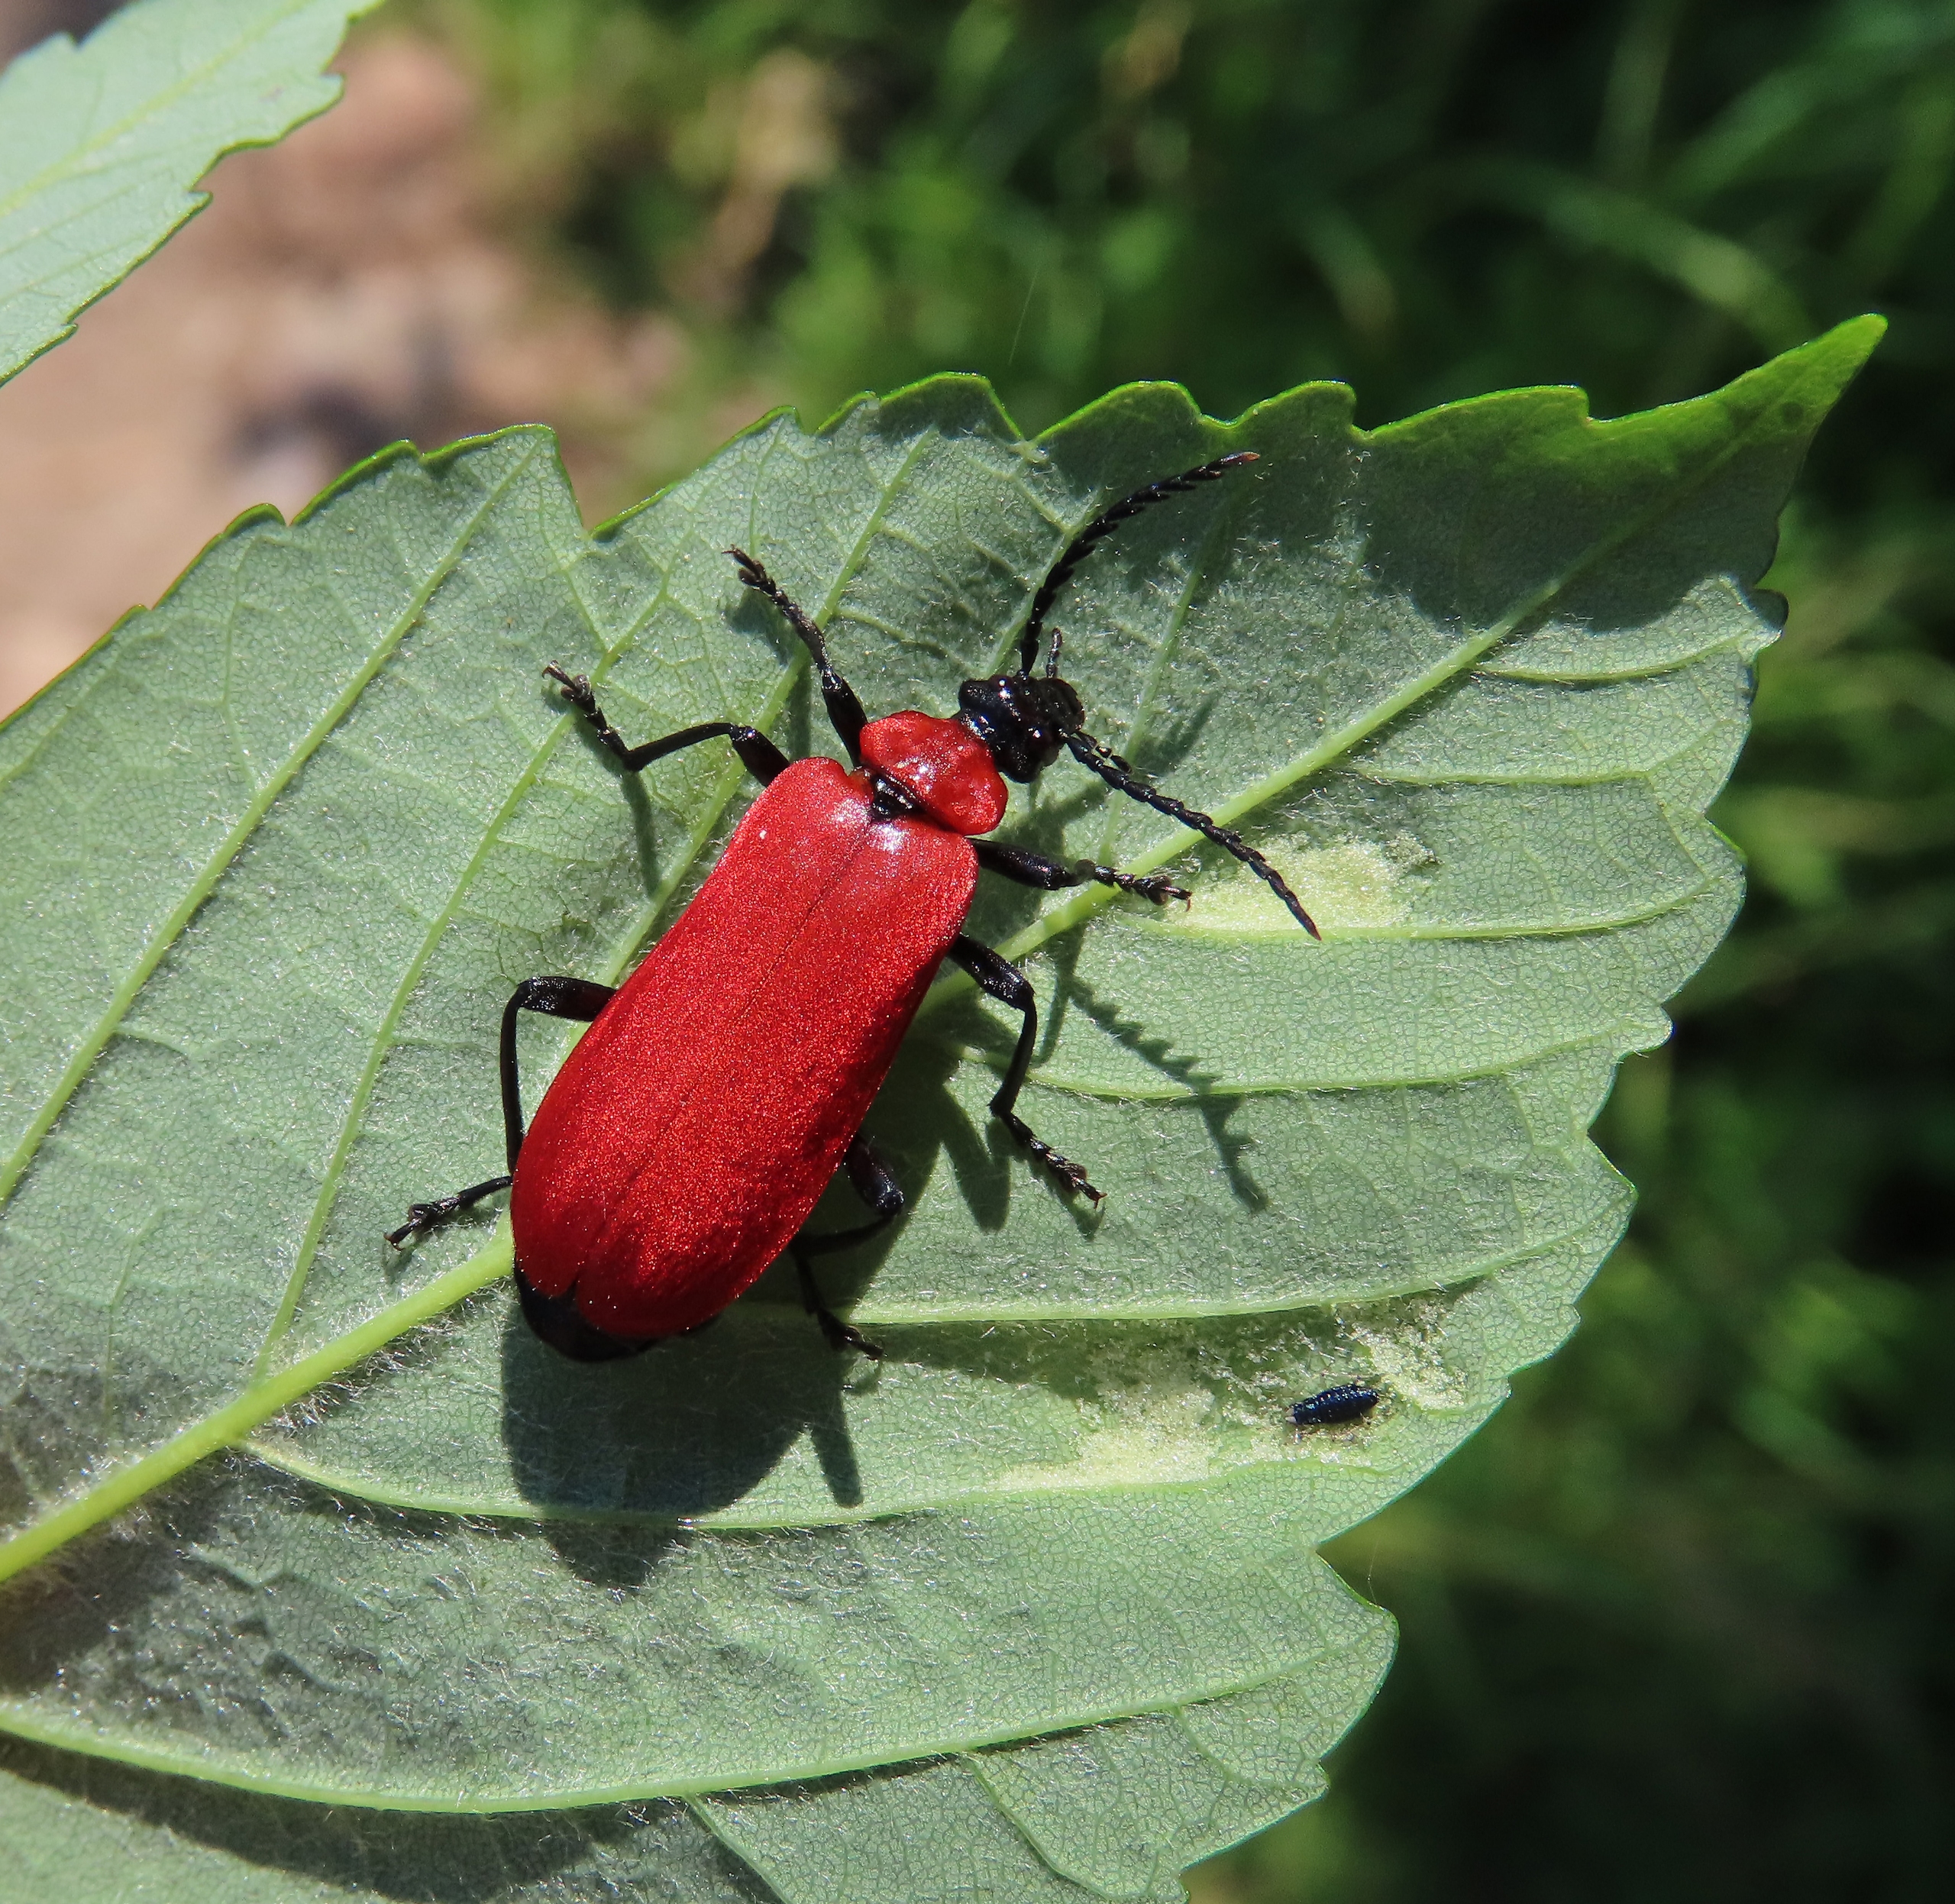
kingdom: Animalia
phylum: Arthropoda
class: Insecta
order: Coleoptera
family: Pyrochroidae
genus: Pyrochroa
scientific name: Pyrochroa coccinea
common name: Sorthovedet kardinalbille
